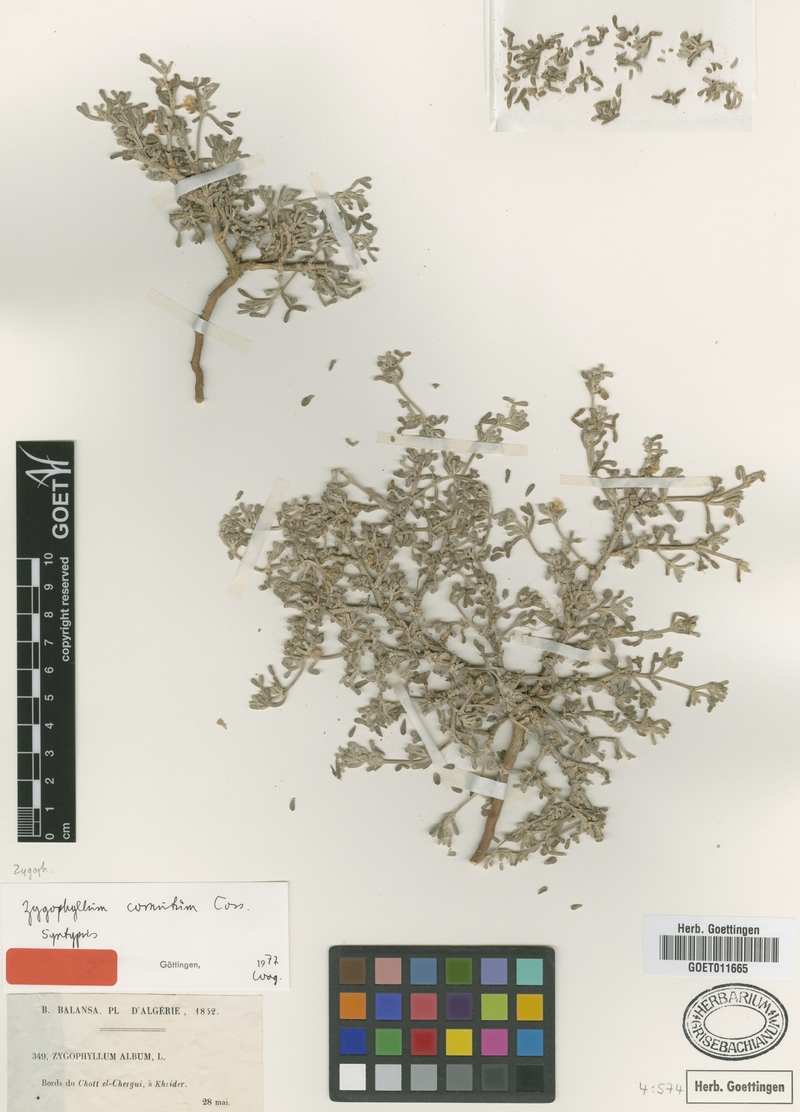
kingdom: Plantae
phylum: Tracheophyta
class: Magnoliopsida
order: Zygophyllales
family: Zygophyllaceae
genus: Tetraena
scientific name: Tetraena cornuta
